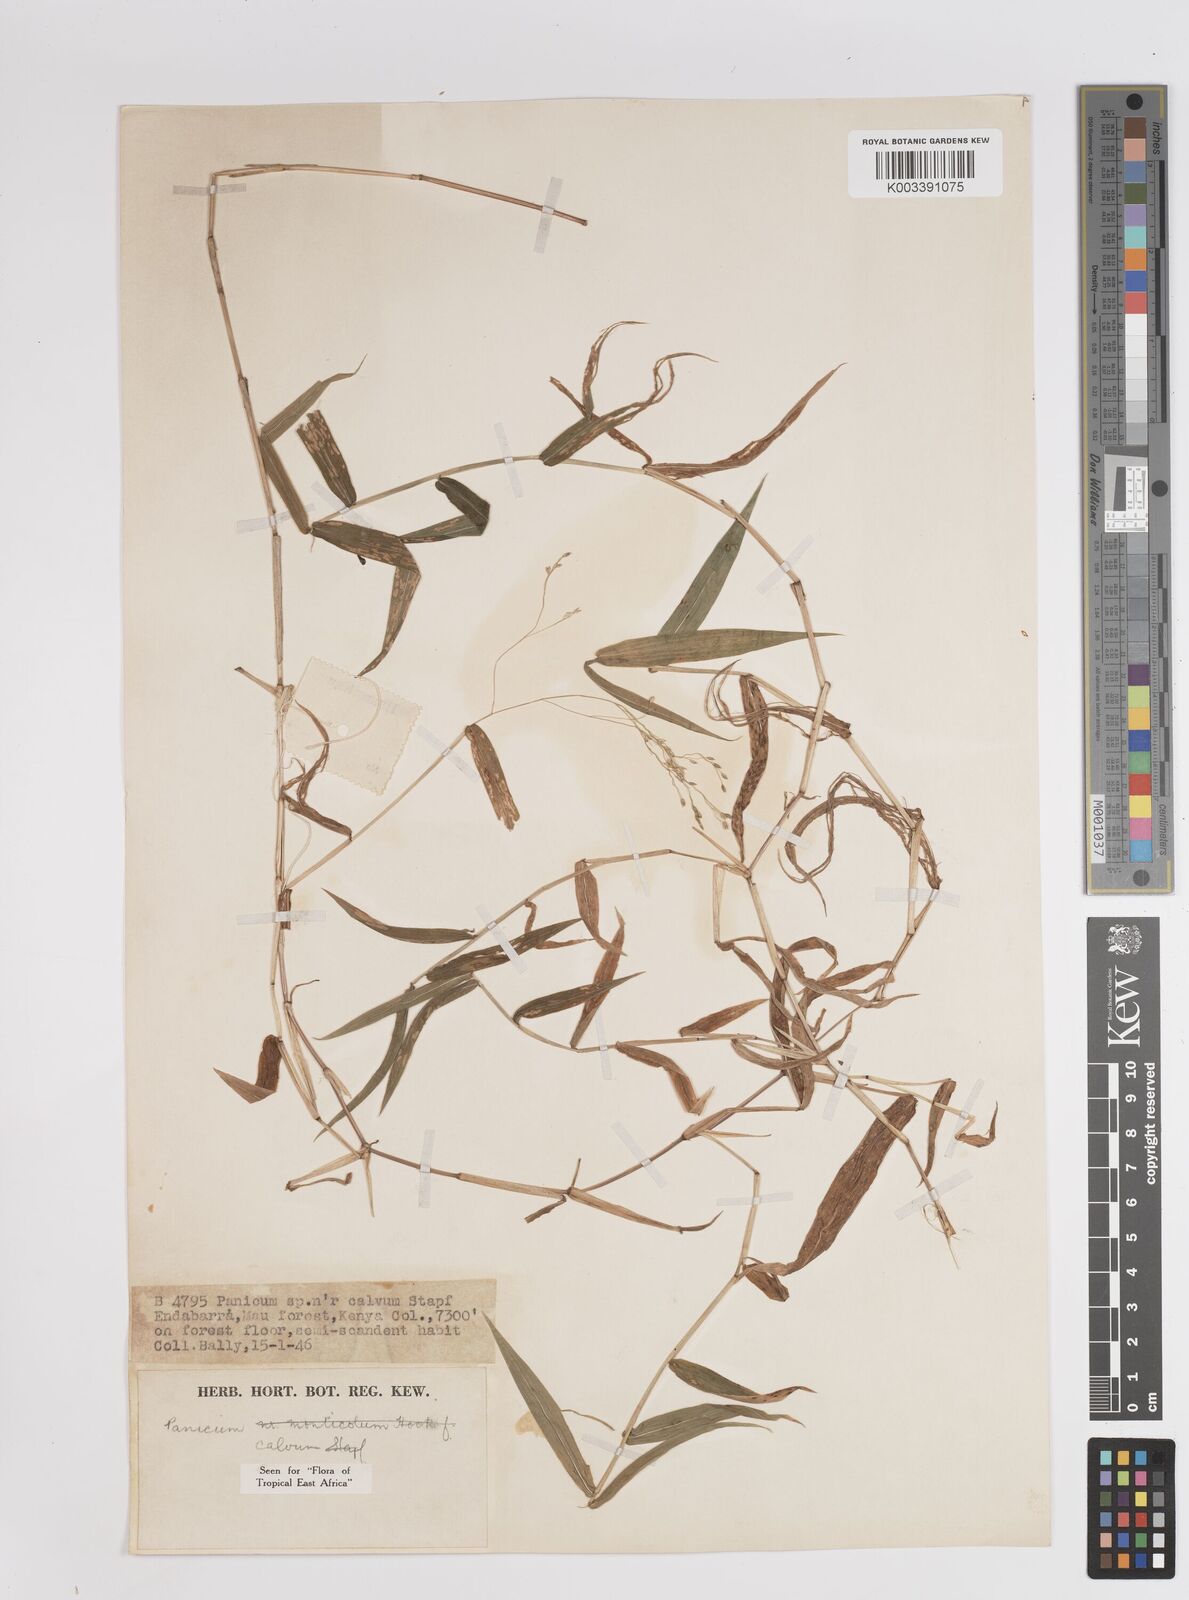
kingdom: Plantae
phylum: Tracheophyta
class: Liliopsida
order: Poales
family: Poaceae
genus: Panicum
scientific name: Panicum calvum
